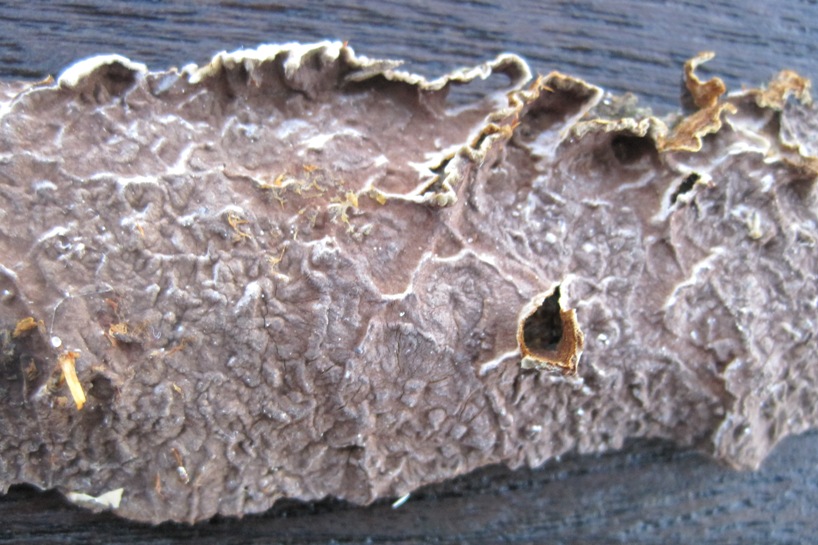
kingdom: Fungi
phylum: Basidiomycota
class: Agaricomycetes
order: Hymenochaetales
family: Hymenochaetaceae
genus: Hydnoporia
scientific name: Hydnoporia tabacina
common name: tobaksbrun ruslædersvamp
